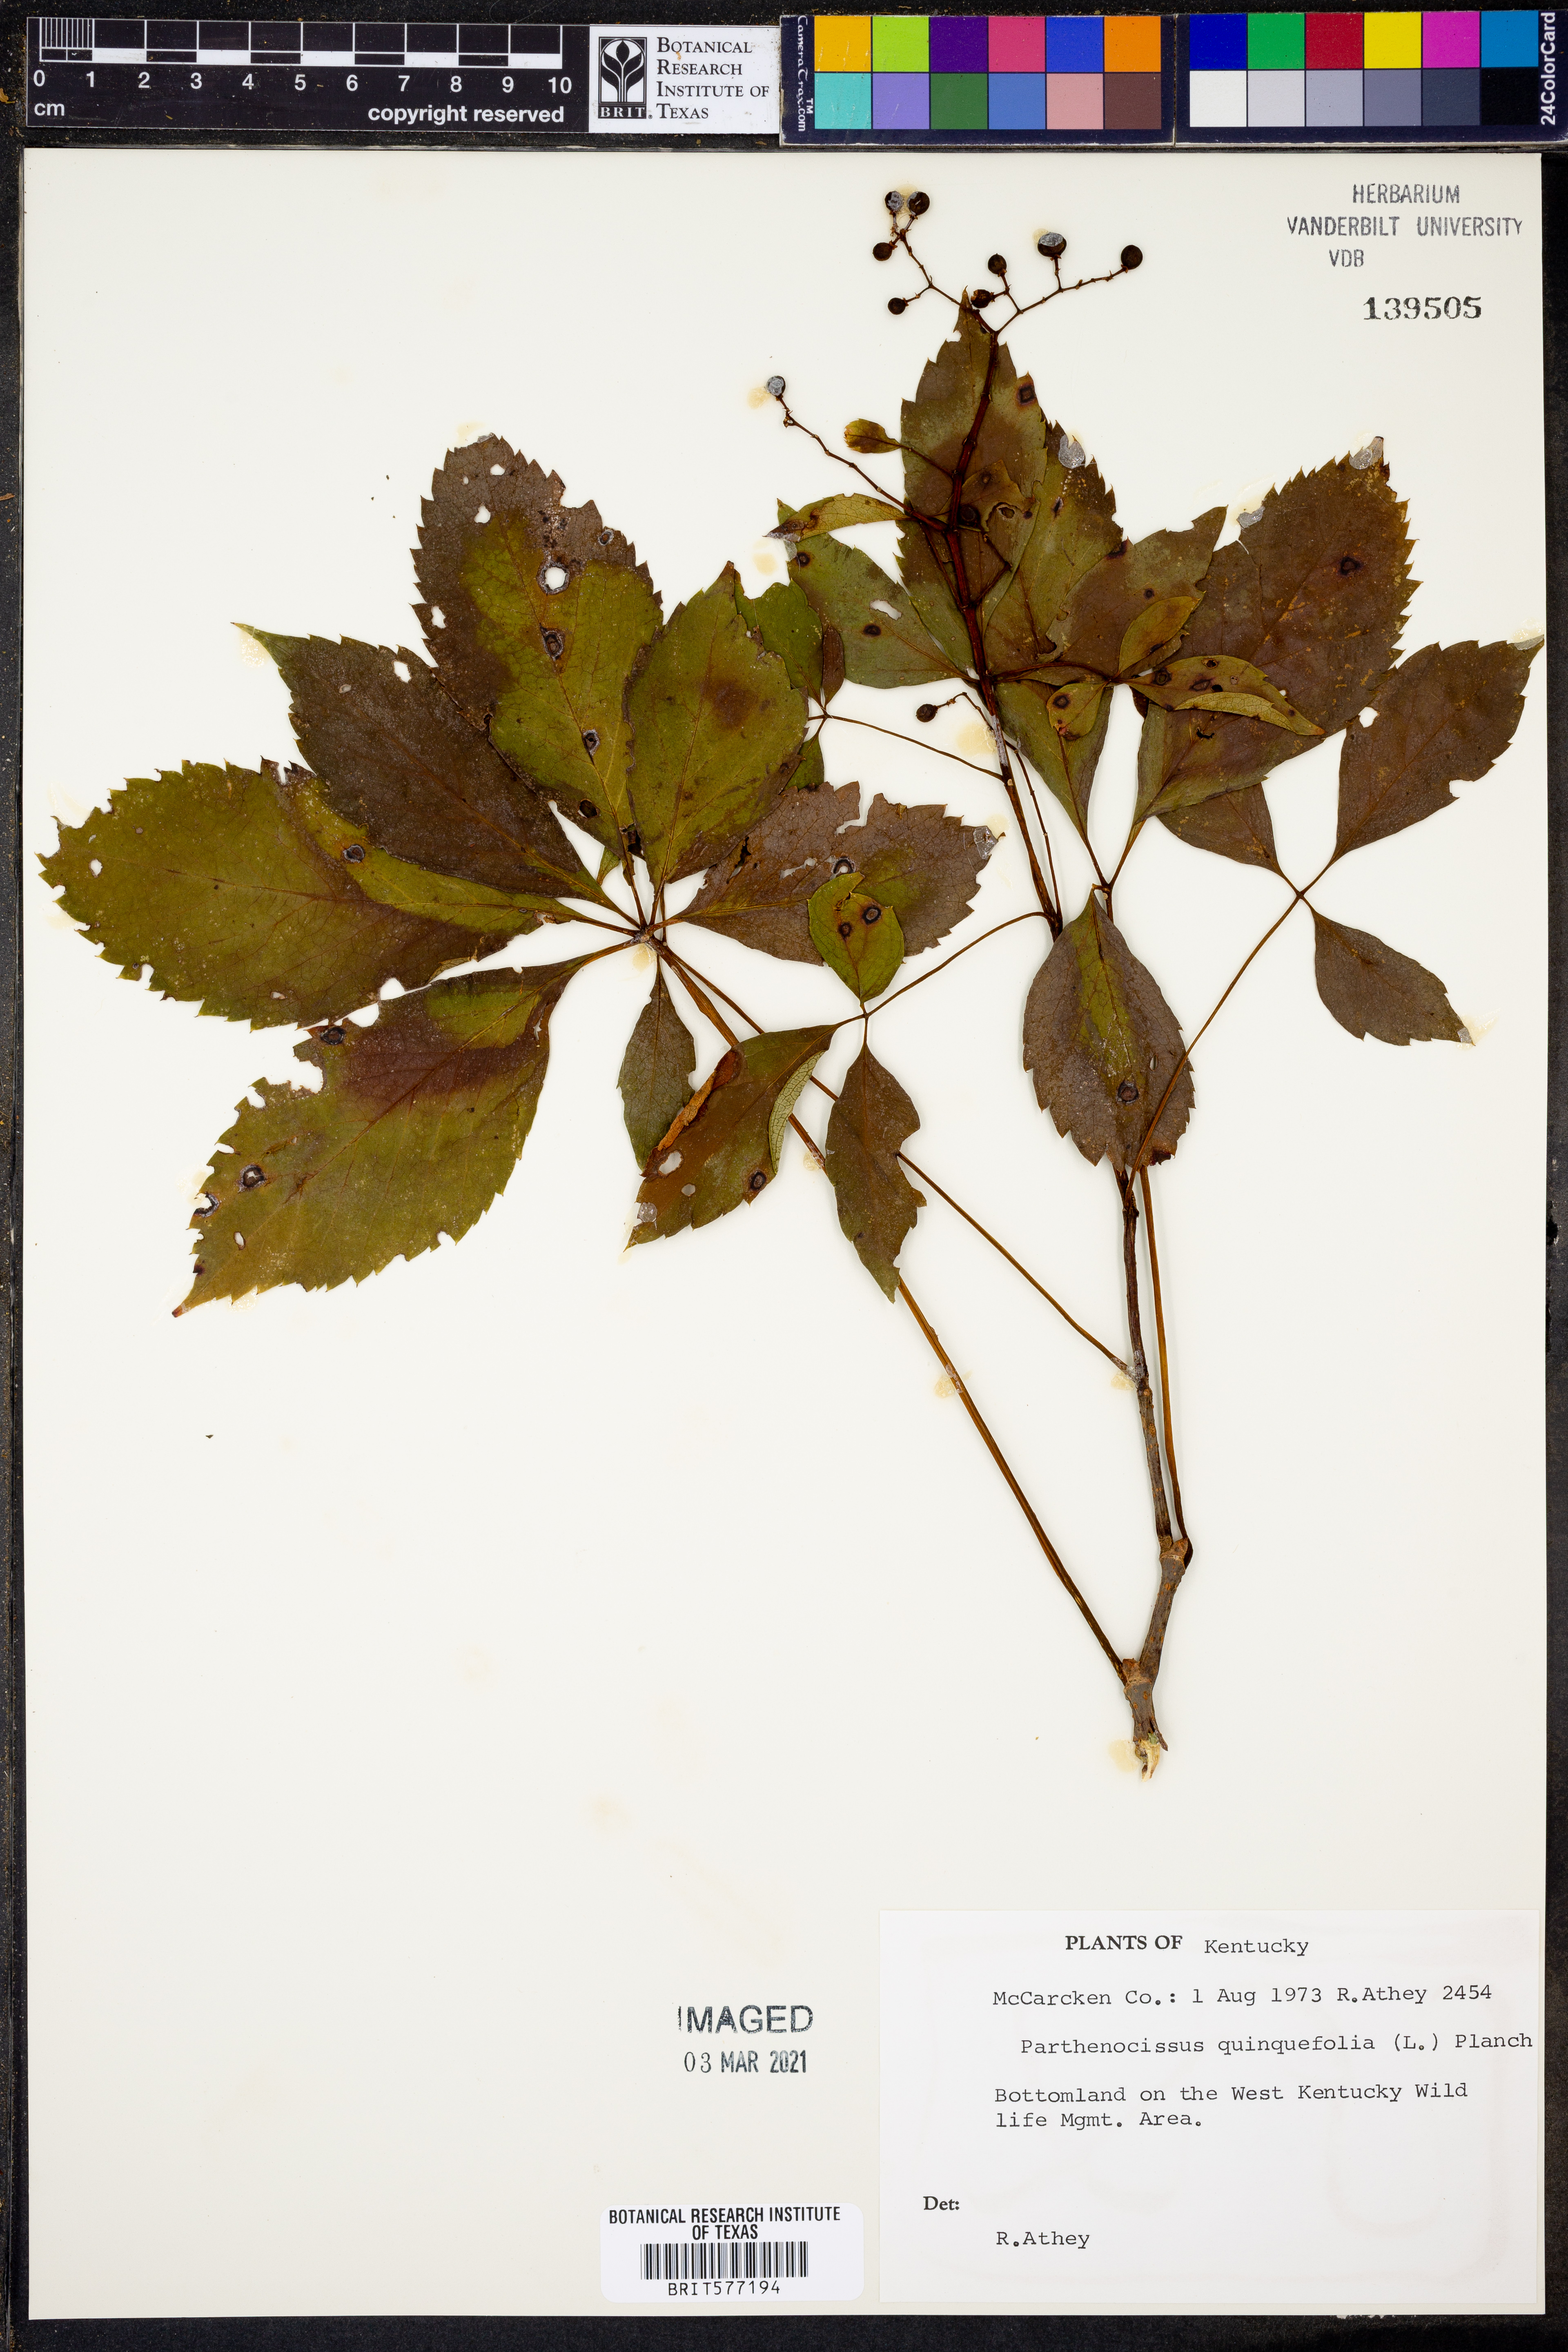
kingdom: Plantae
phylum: Tracheophyta
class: Magnoliopsida
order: Vitales
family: Vitaceae
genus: Parthenocissus
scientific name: Parthenocissus quinquefolia
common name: Virginia-creeper
